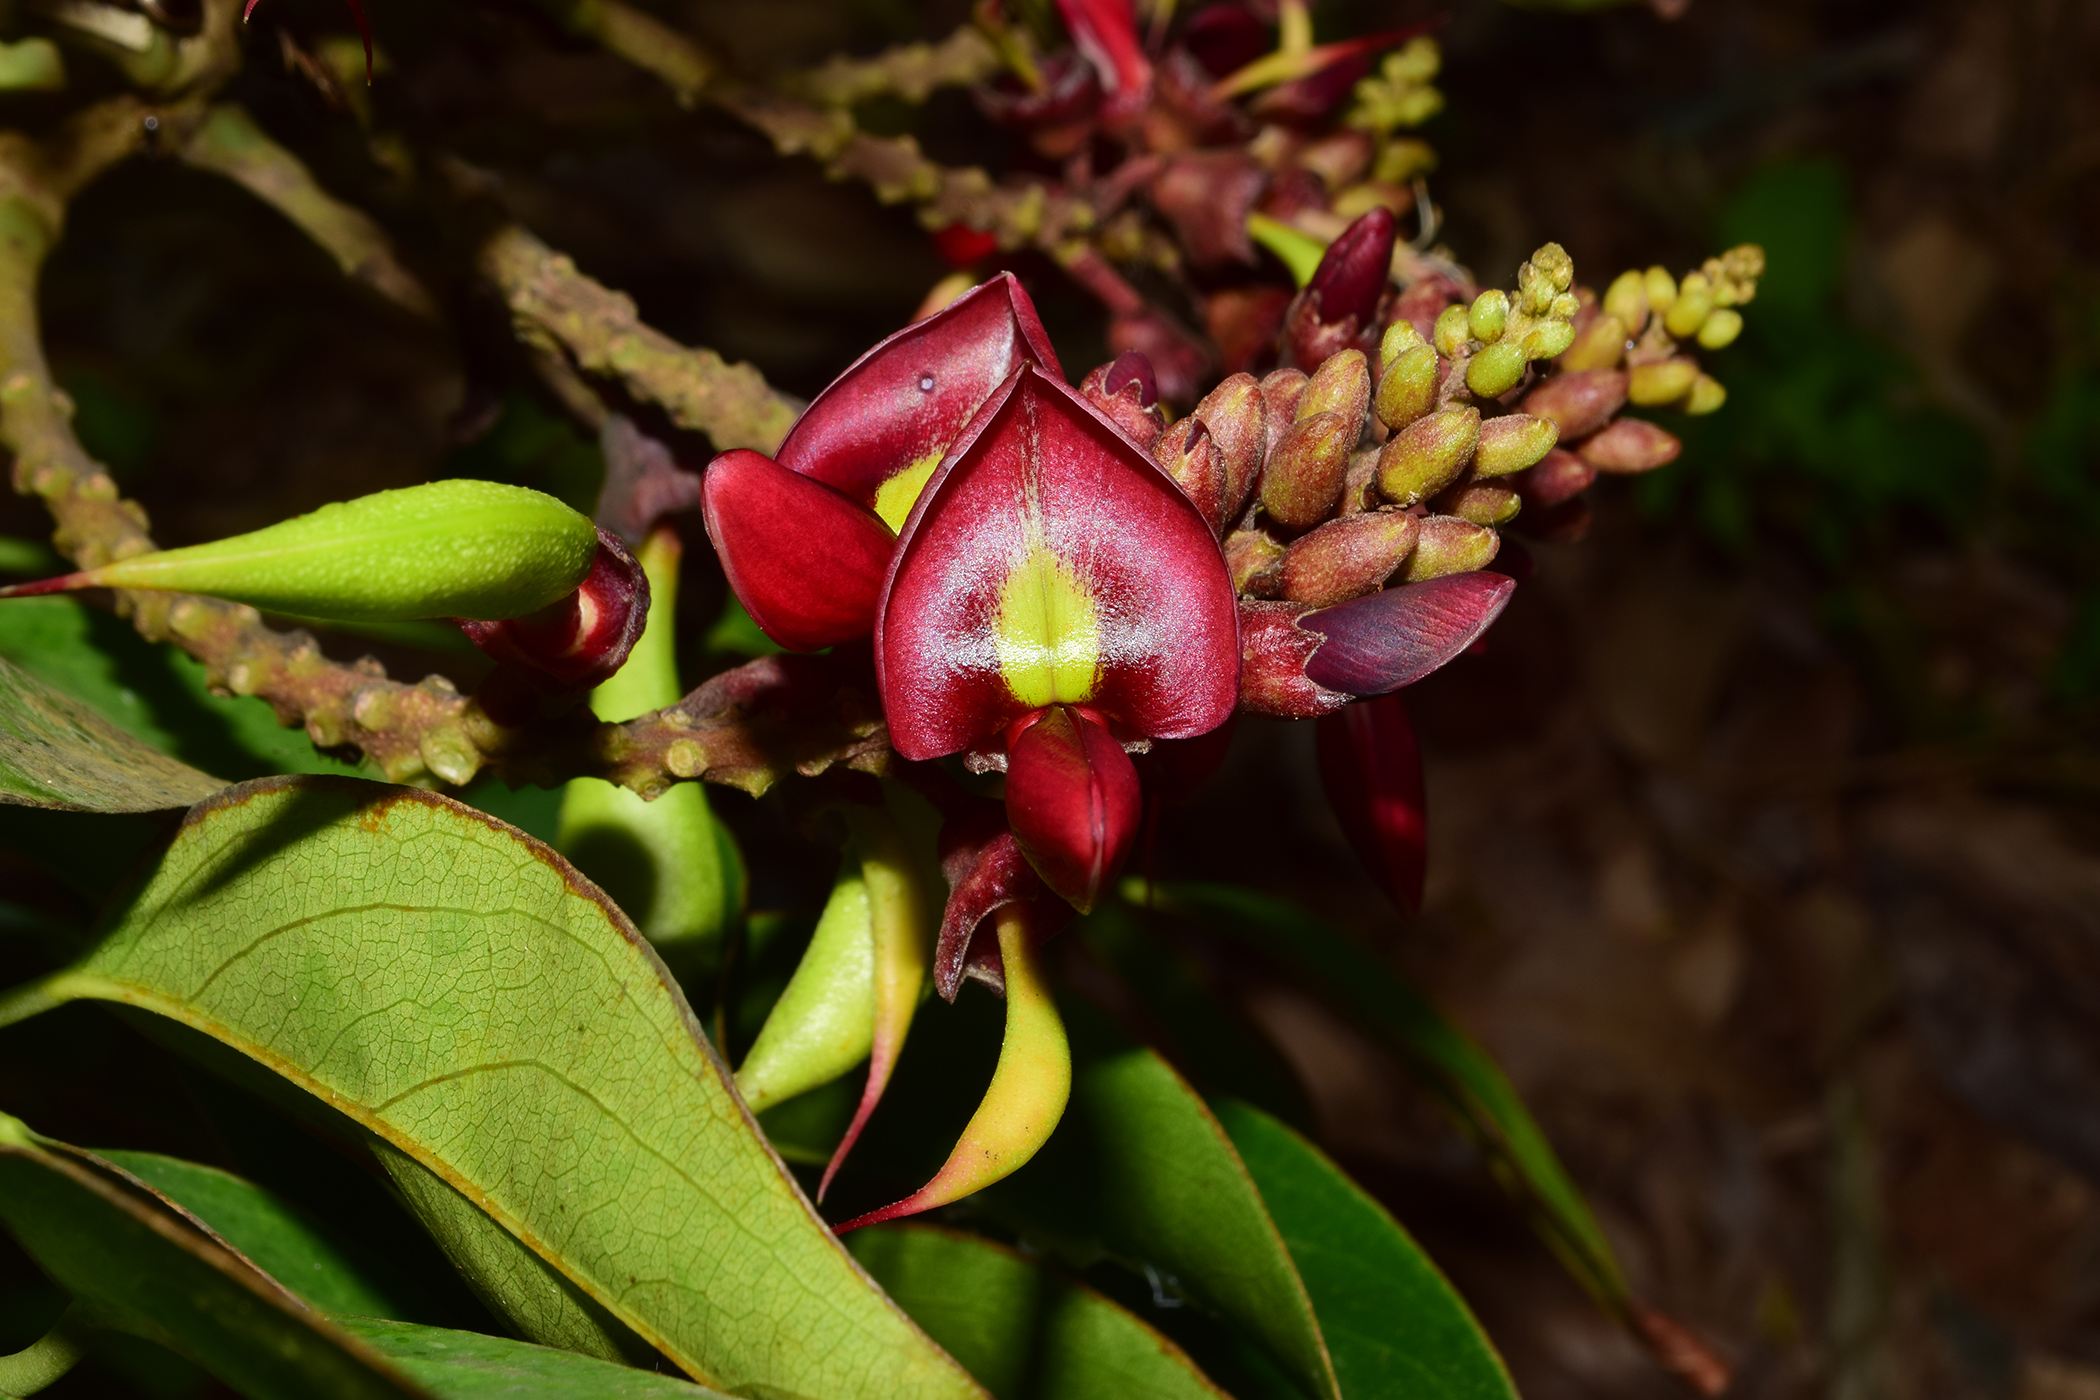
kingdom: Plantae
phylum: Tracheophyta
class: Magnoliopsida
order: Fabales
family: Fabaceae
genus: Adinobotrys
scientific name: Adinobotrys atropurpureus
